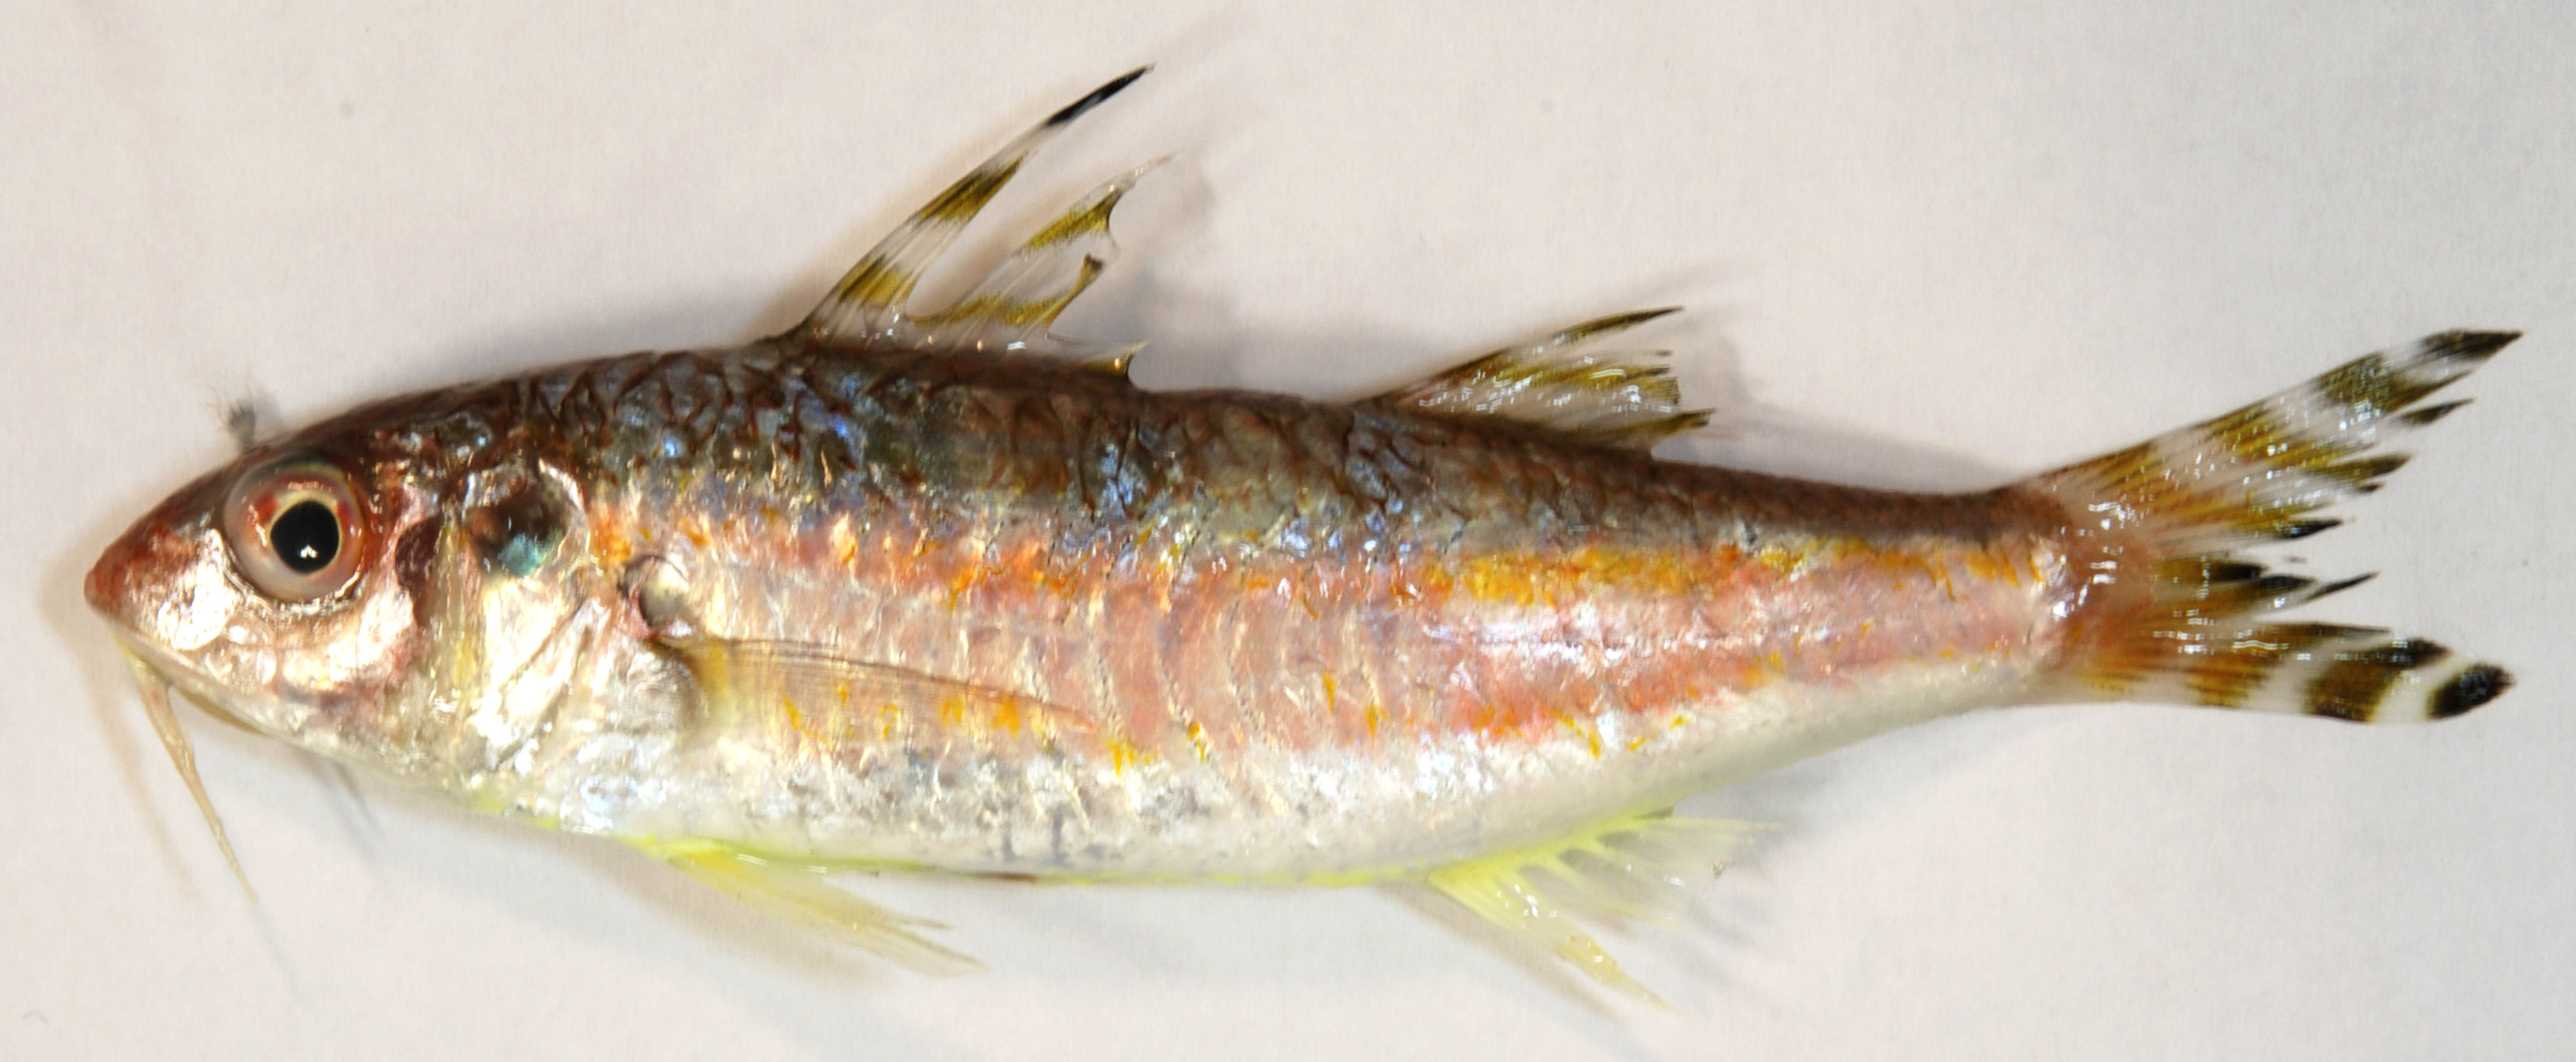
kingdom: Animalia
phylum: Chordata
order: Perciformes
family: Mullidae
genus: Upeneus
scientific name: Upeneus suahelicus
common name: Swahili goatfish
